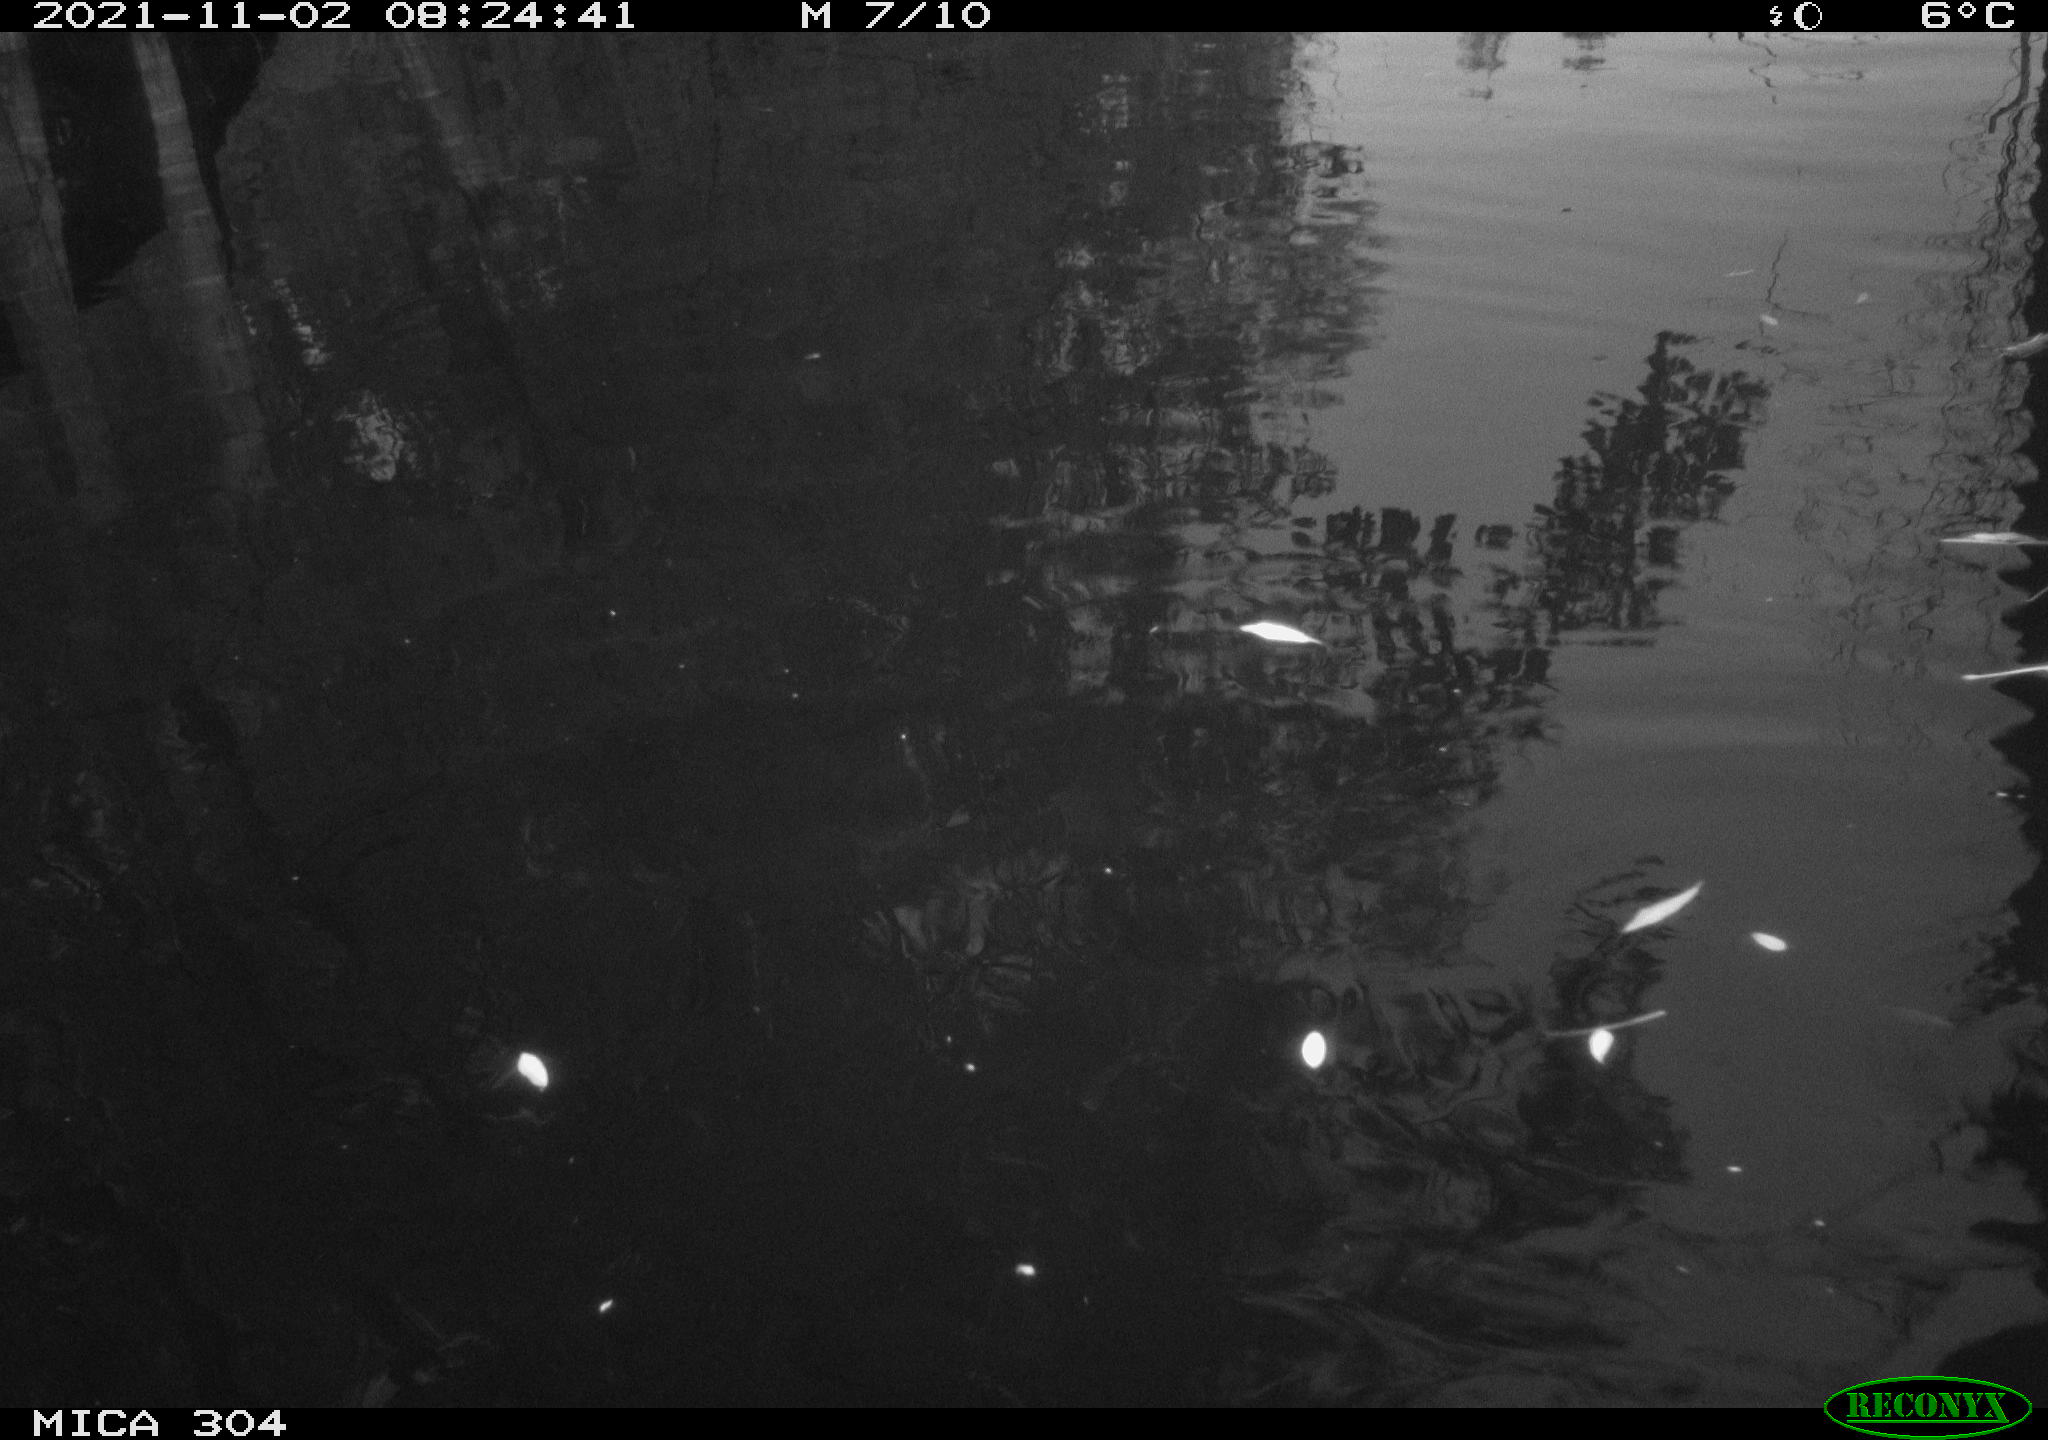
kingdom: Animalia
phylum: Chordata
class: Aves
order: Gruiformes
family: Rallidae
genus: Gallinula
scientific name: Gallinula chloropus
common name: Common moorhen
